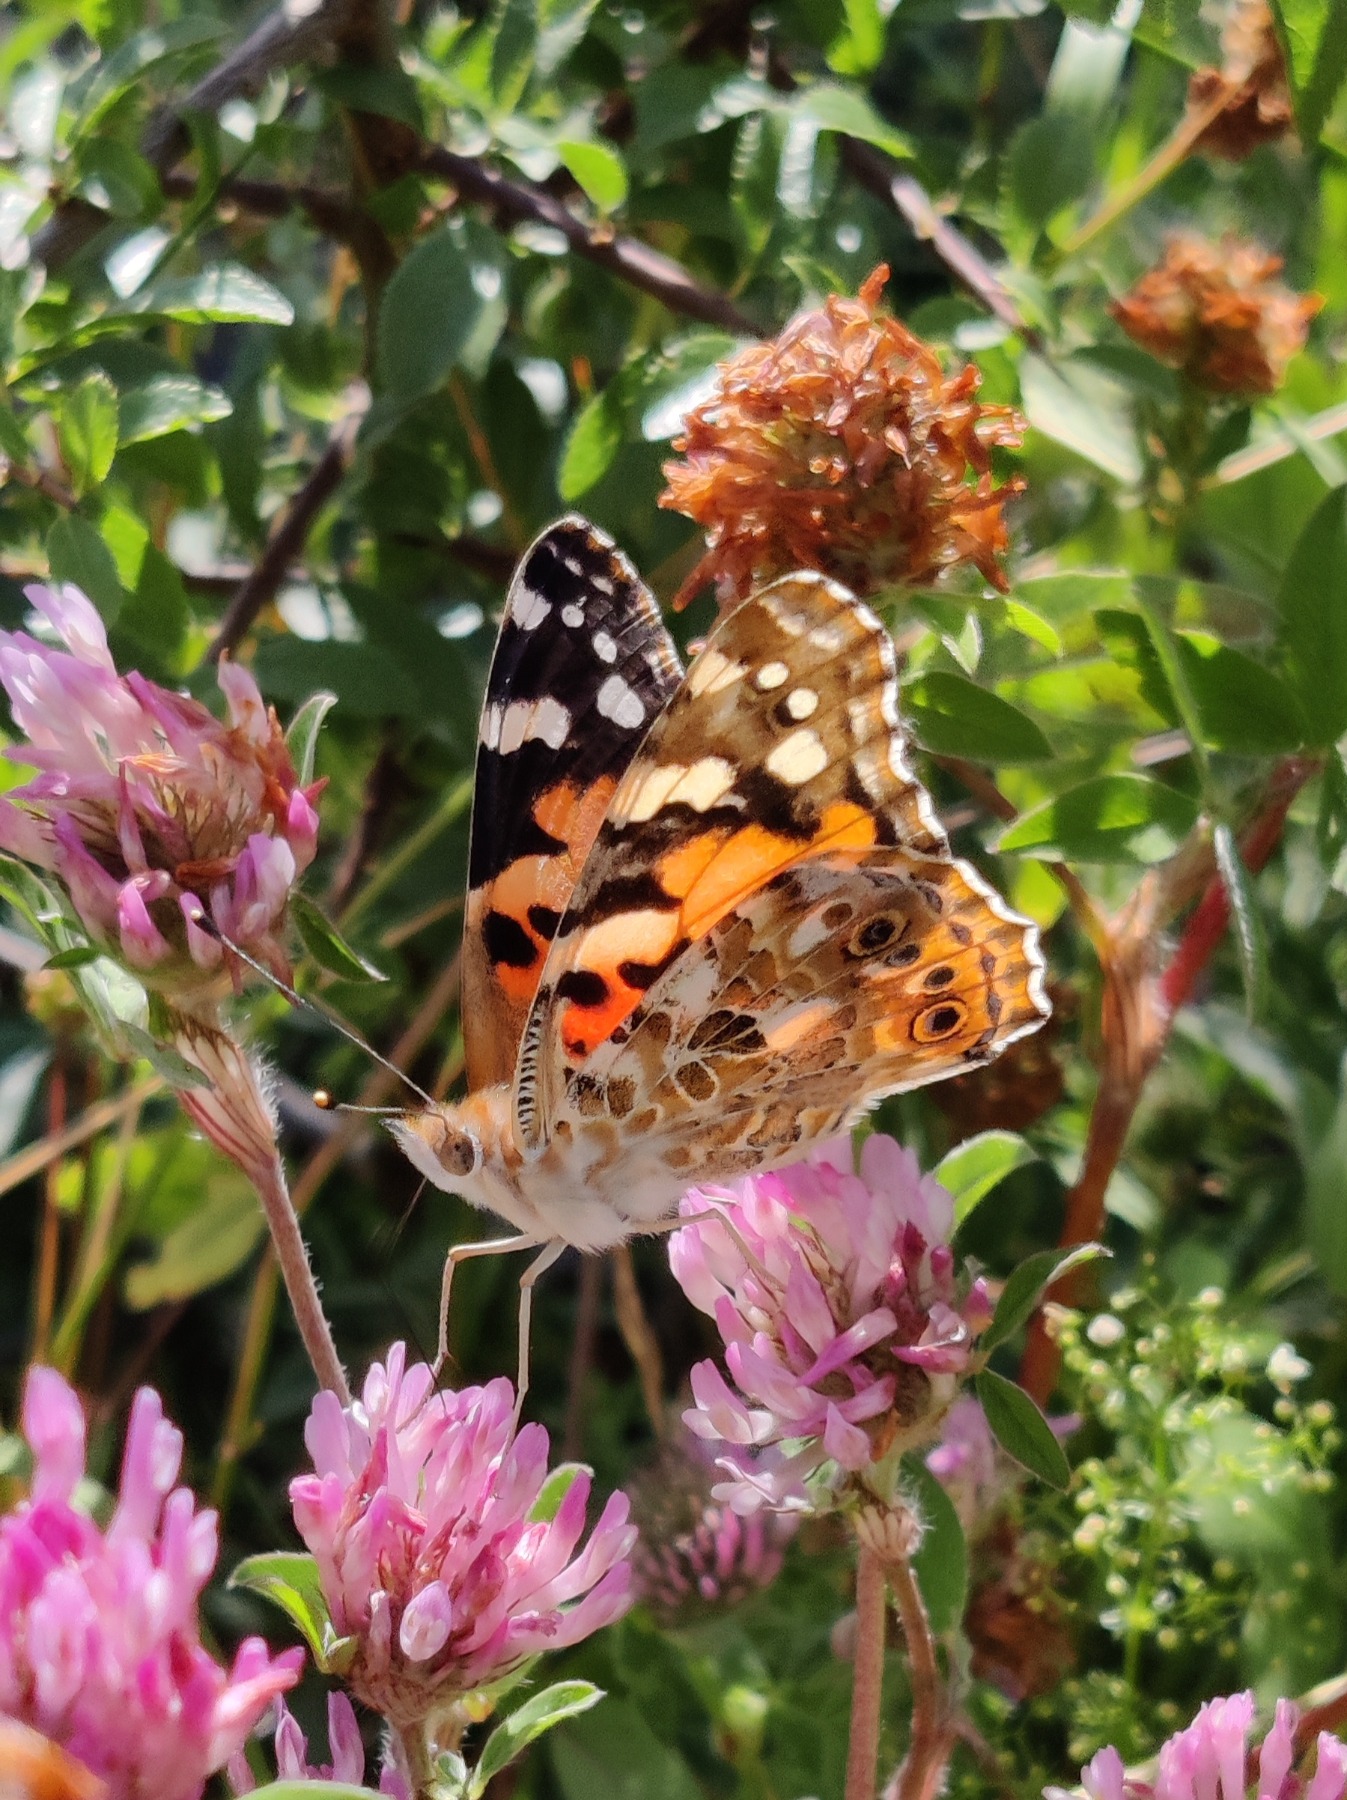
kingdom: Animalia
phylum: Arthropoda
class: Insecta
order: Lepidoptera
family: Nymphalidae
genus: Vanessa
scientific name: Vanessa cardui
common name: Tidselsommerfugl
